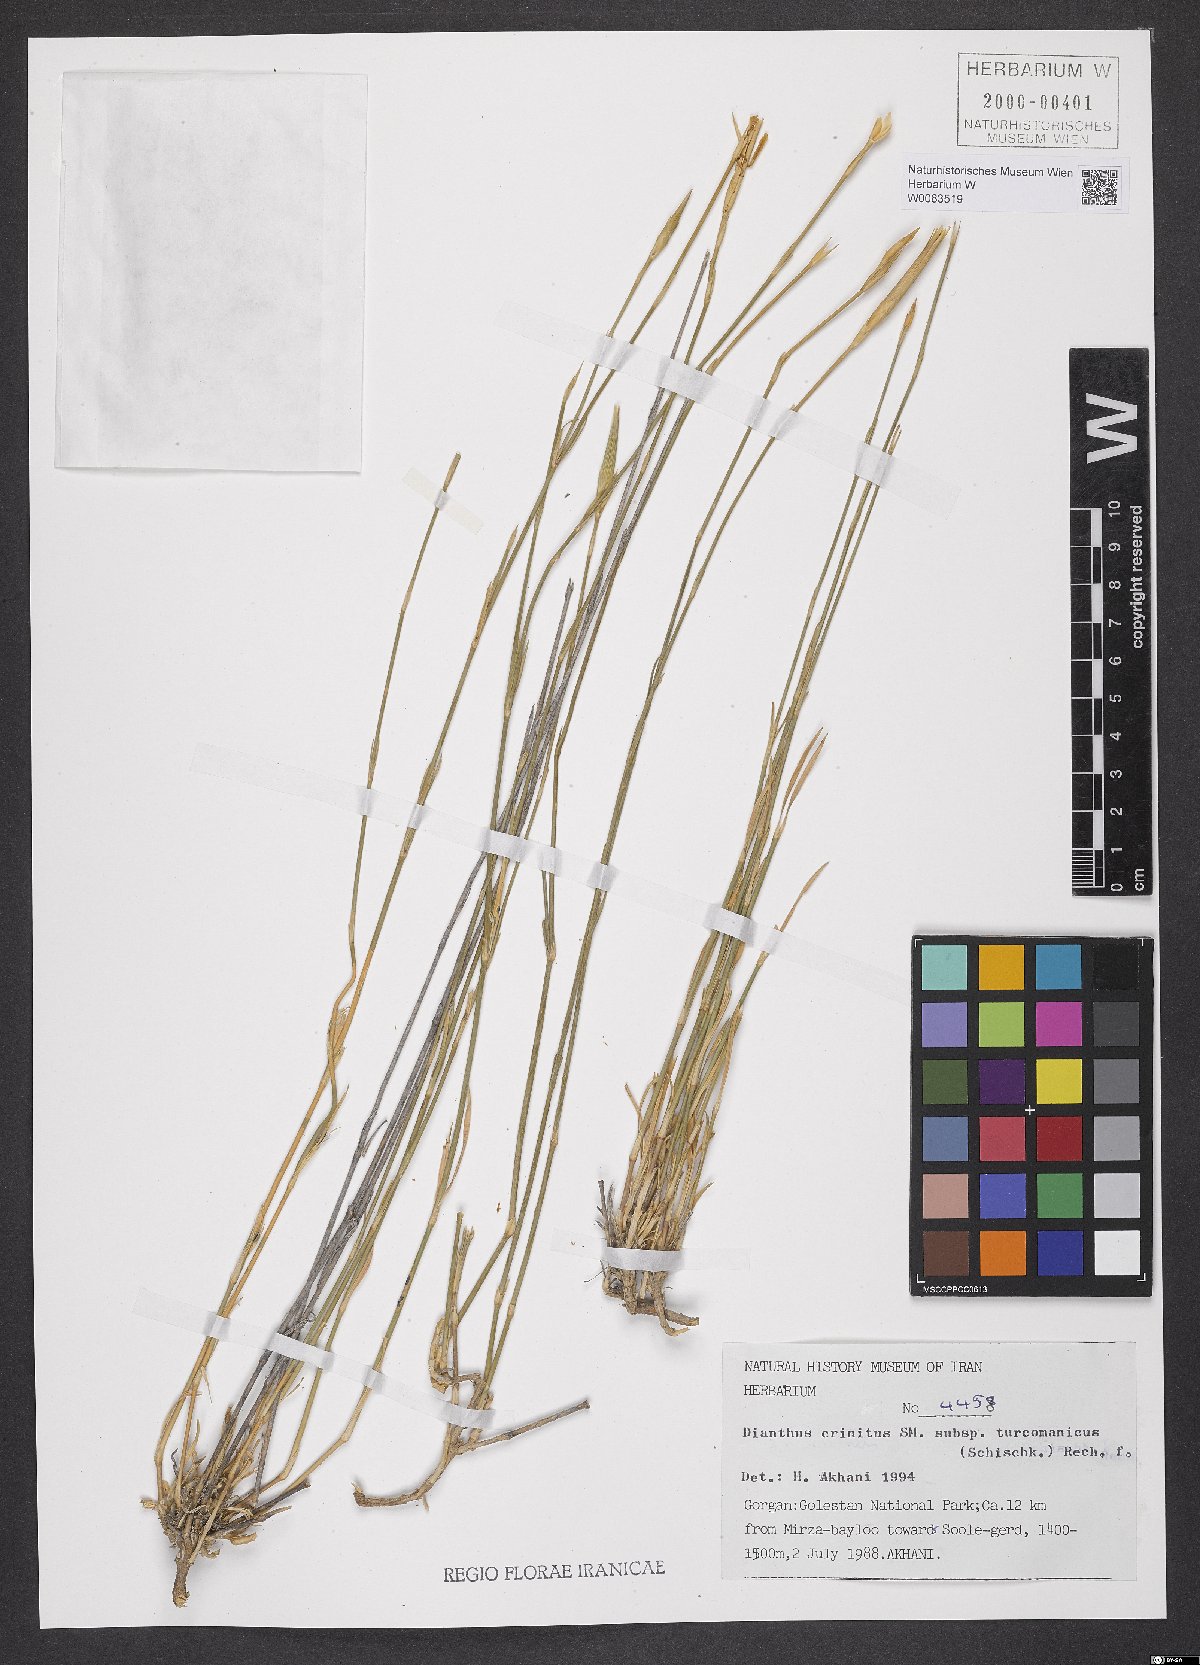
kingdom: Plantae
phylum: Tracheophyta
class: Magnoliopsida
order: Caryophyllales
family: Caryophyllaceae
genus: Dianthus
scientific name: Dianthus turkestanicus
